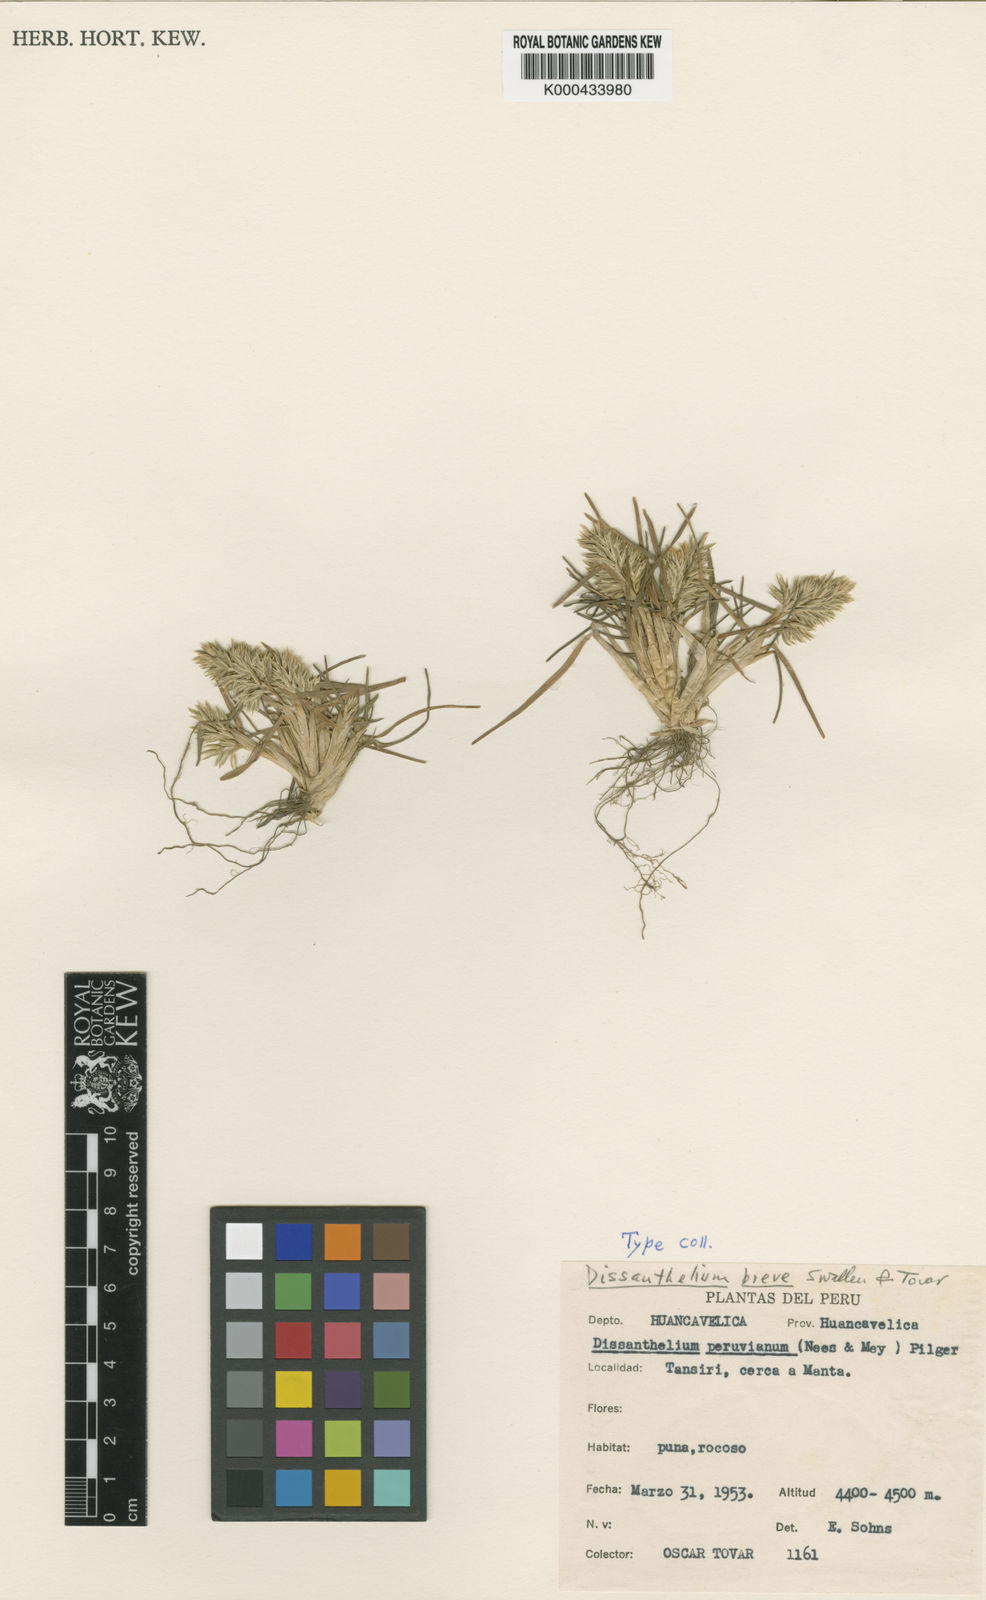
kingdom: Plantae
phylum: Tracheophyta
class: Liliopsida
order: Poales
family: Poaceae
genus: Poa
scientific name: Poa
